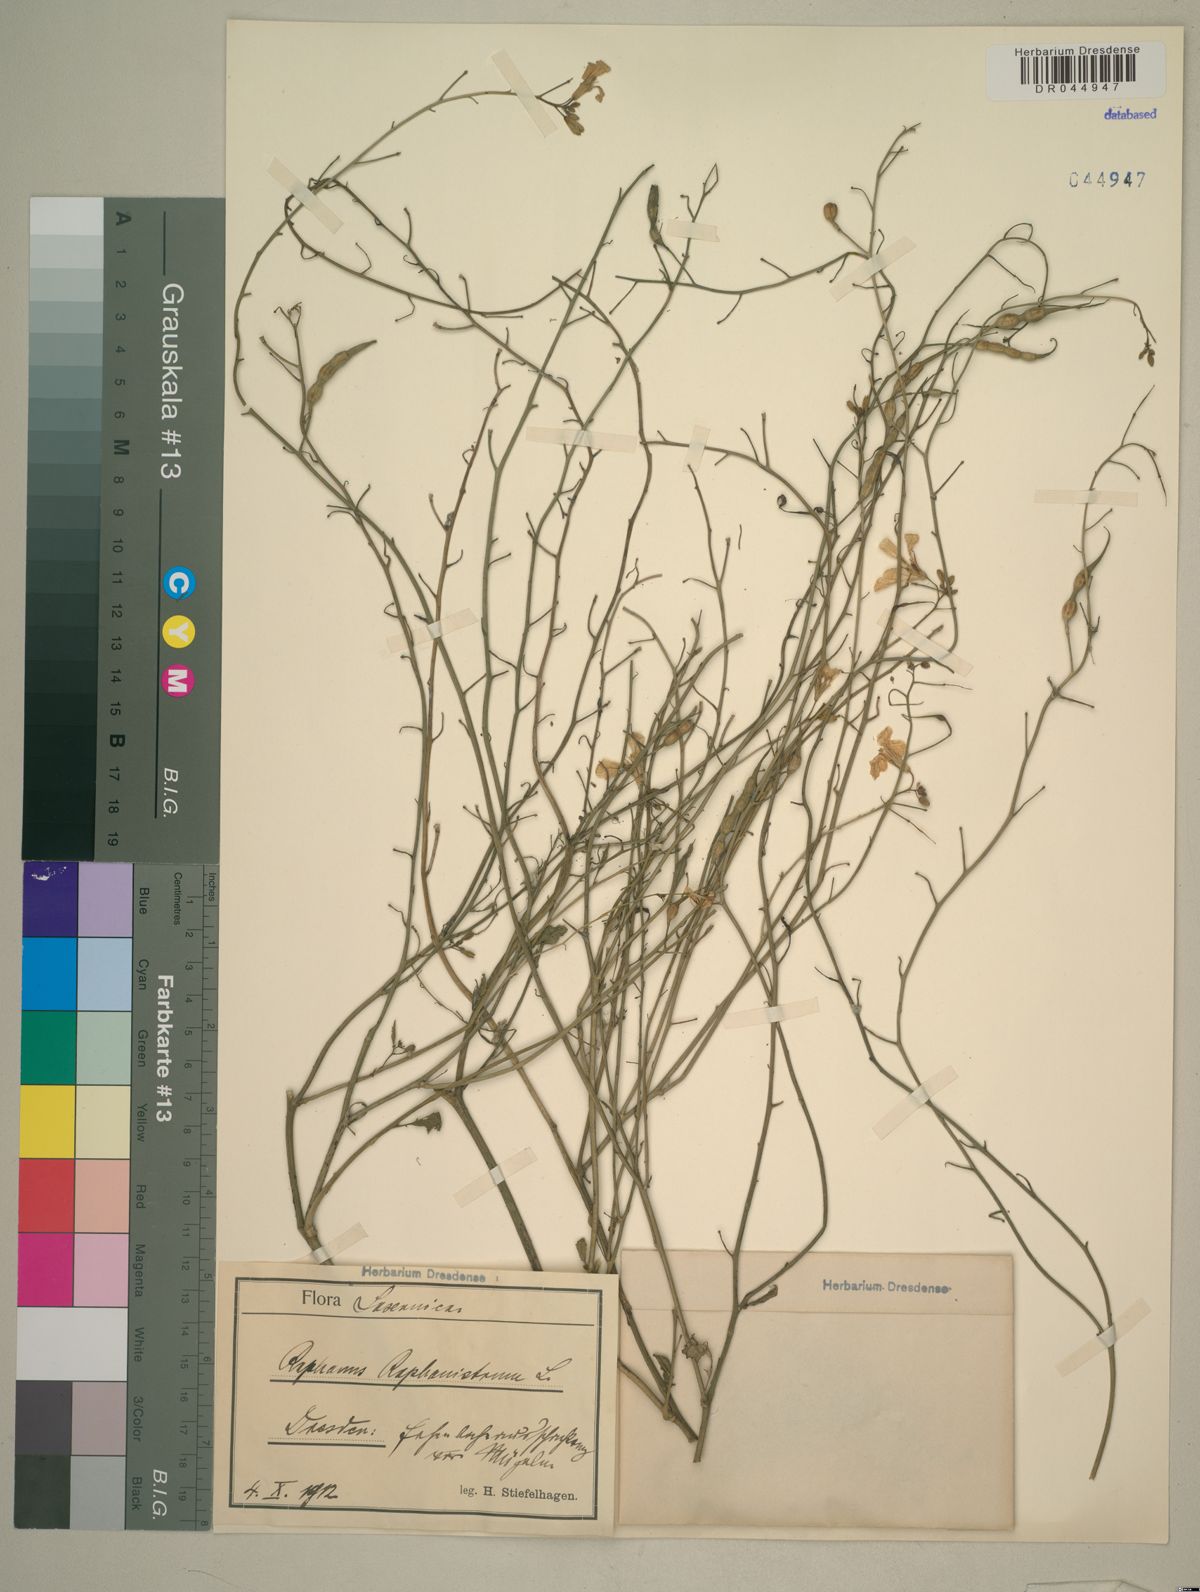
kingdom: Plantae
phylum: Tracheophyta
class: Magnoliopsida
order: Brassicales
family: Brassicaceae
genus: Raphanus
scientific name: Raphanus raphanistrum
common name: Wild radish
